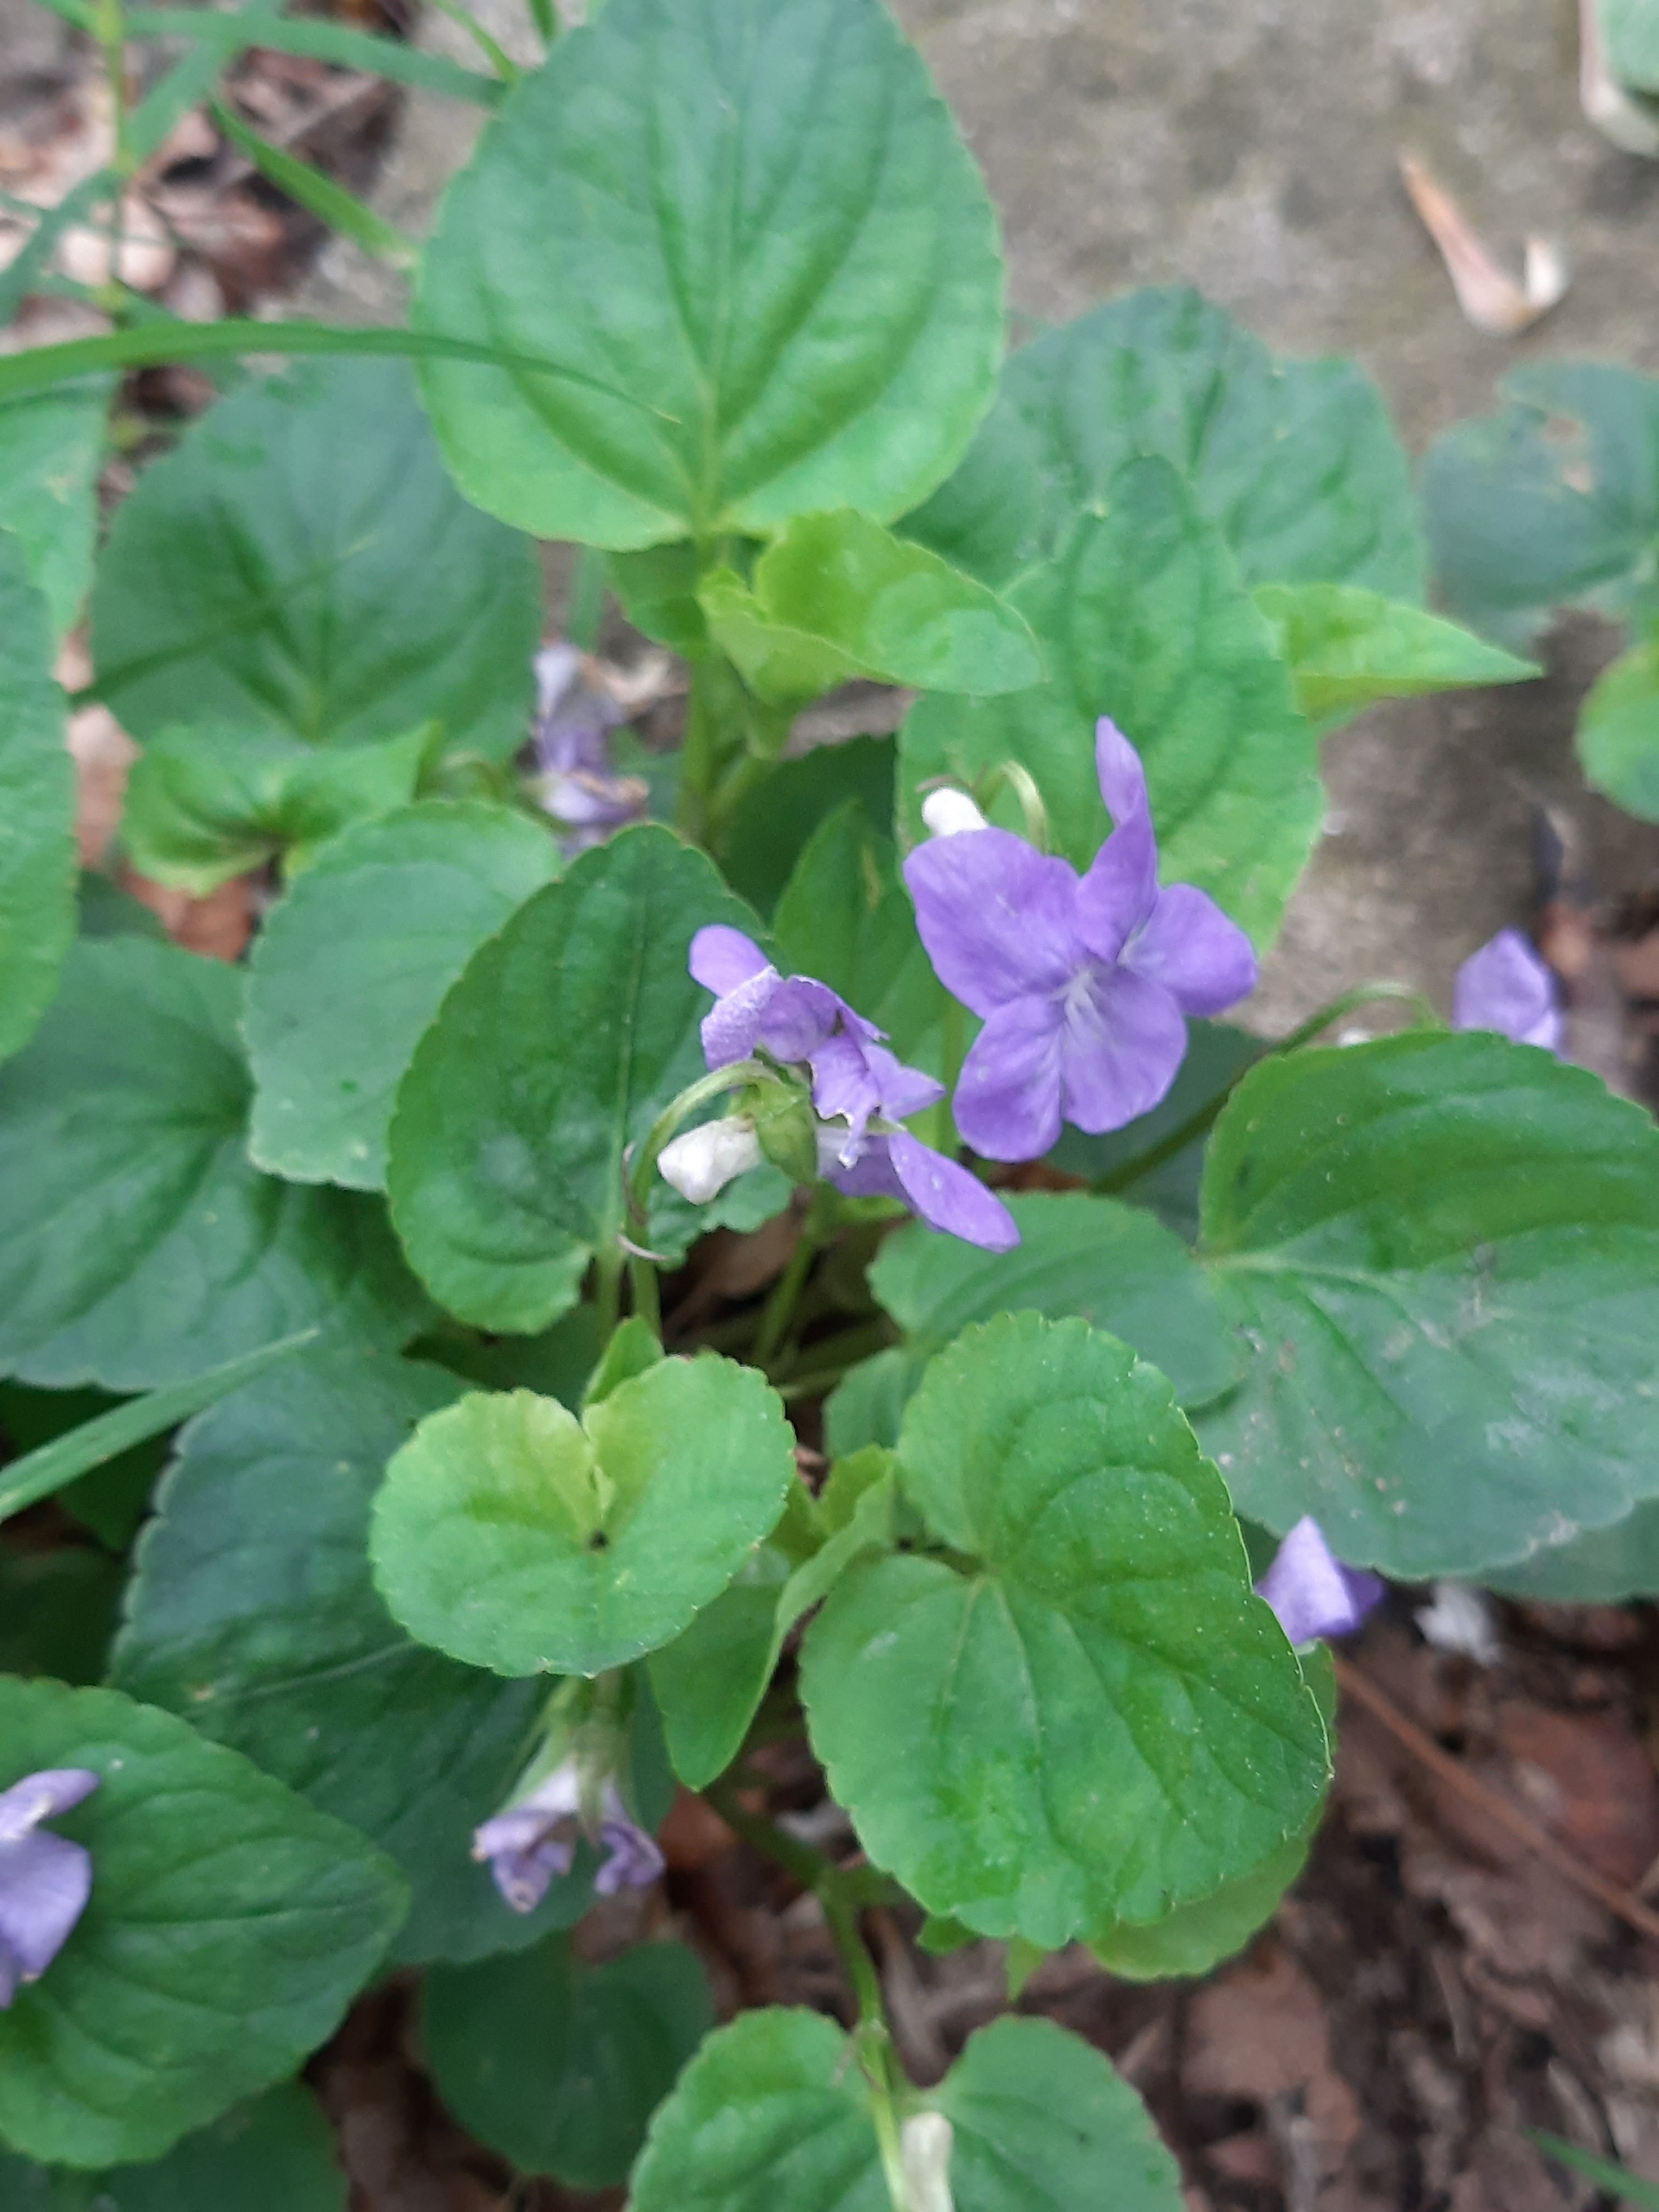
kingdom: Plantae
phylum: Tracheophyta
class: Magnoliopsida
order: Malpighiales
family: Violaceae
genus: Viola
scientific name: Viola riviniana
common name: Krat-viol
